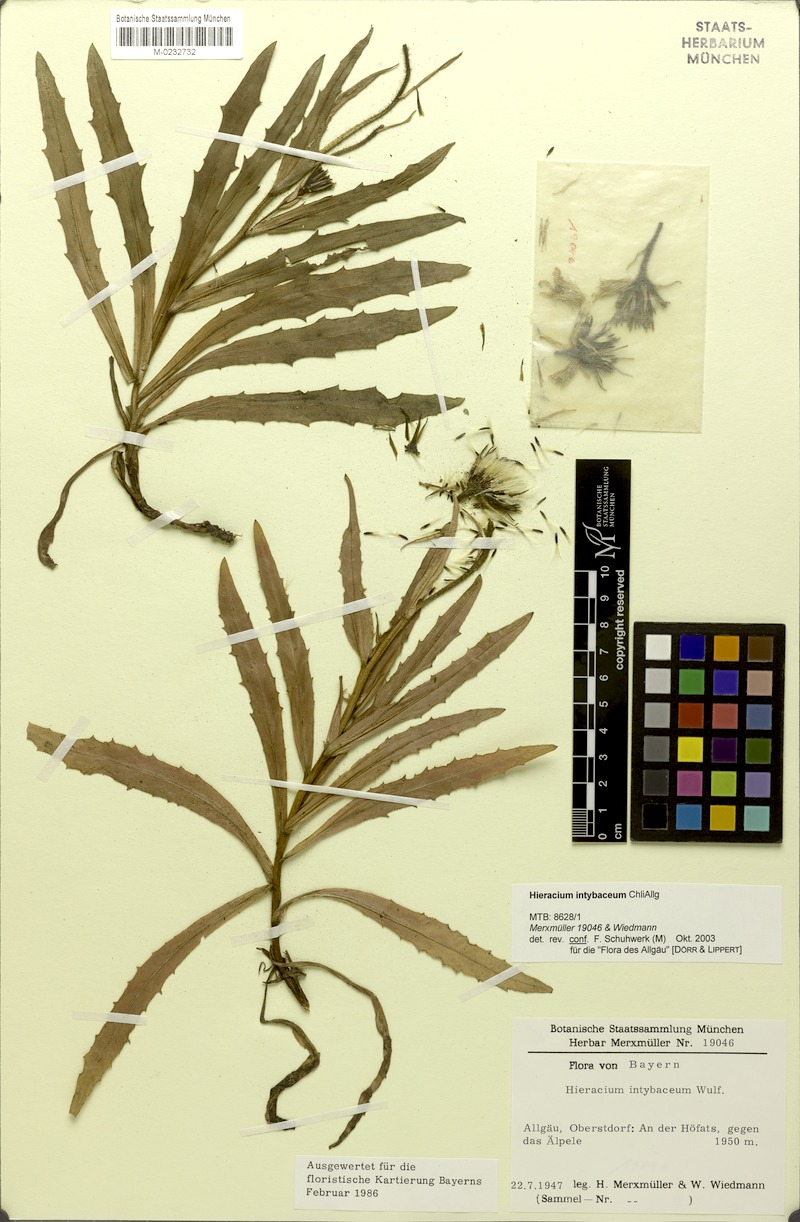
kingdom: Plantae
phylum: Tracheophyta
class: Magnoliopsida
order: Asterales
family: Asteraceae
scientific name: Asteraceae
